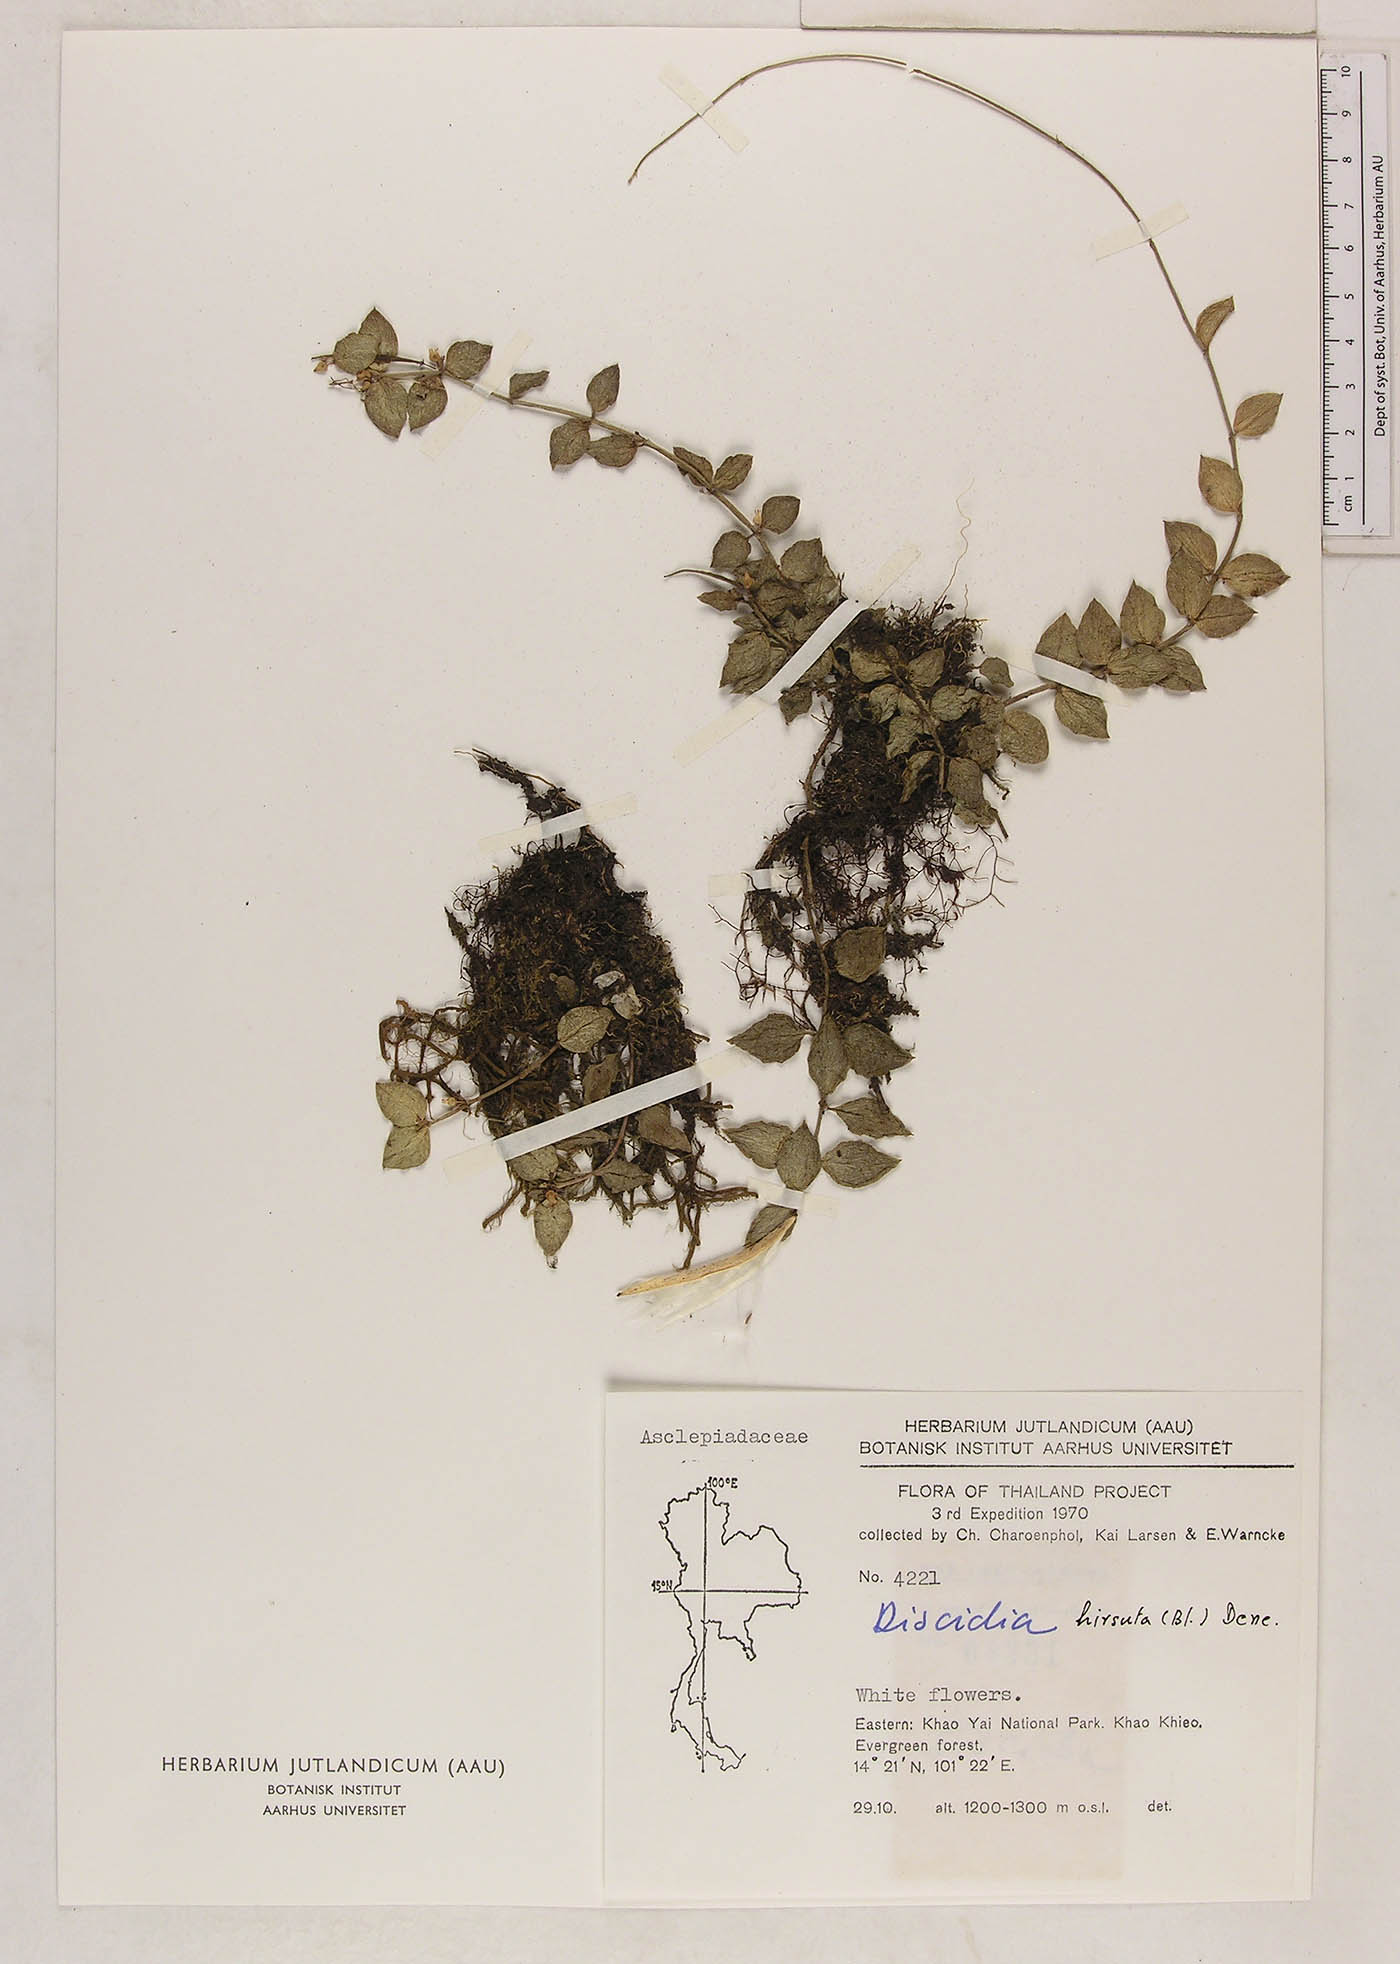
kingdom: Plantae
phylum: Tracheophyta
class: Magnoliopsida
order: Gentianales
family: Apocynaceae
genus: Dischidia
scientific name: Dischidia rimicola
